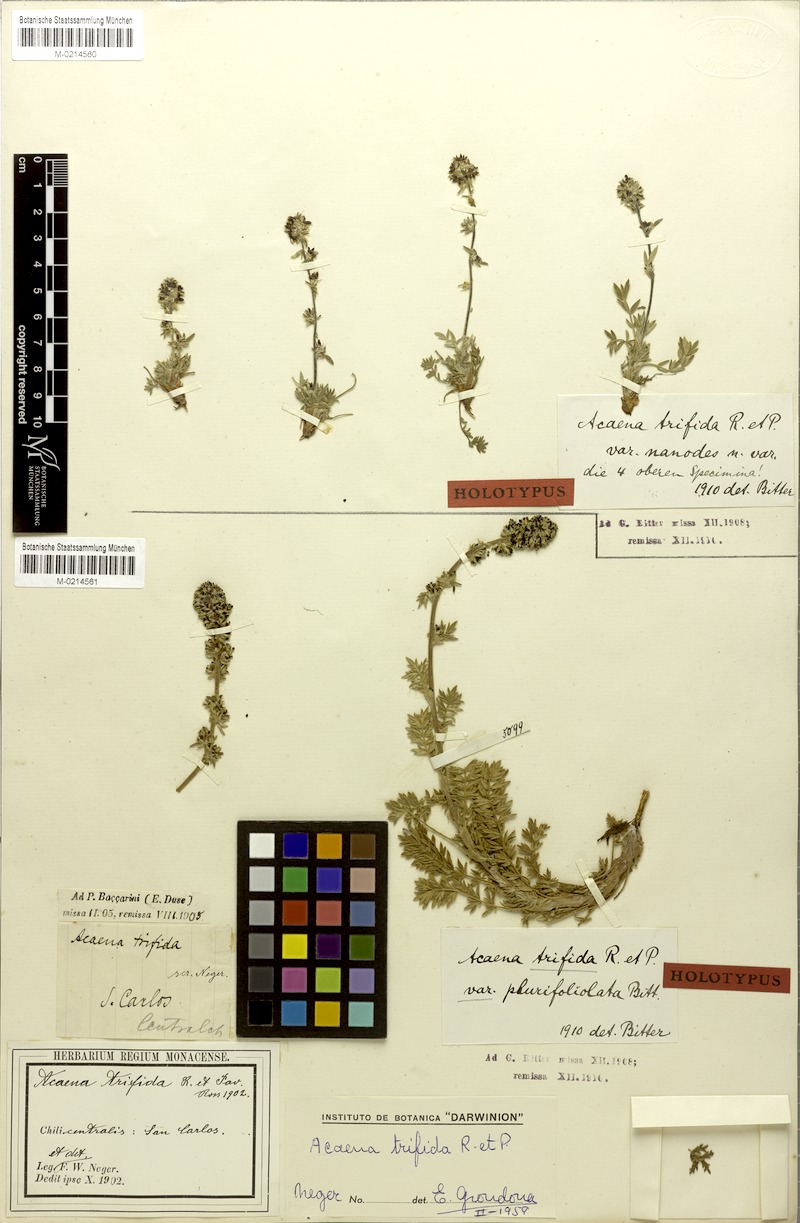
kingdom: Plantae
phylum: Tracheophyta
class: Magnoliopsida
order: Rosales
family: Rosaceae
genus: Acaena
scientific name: Acaena trifida
